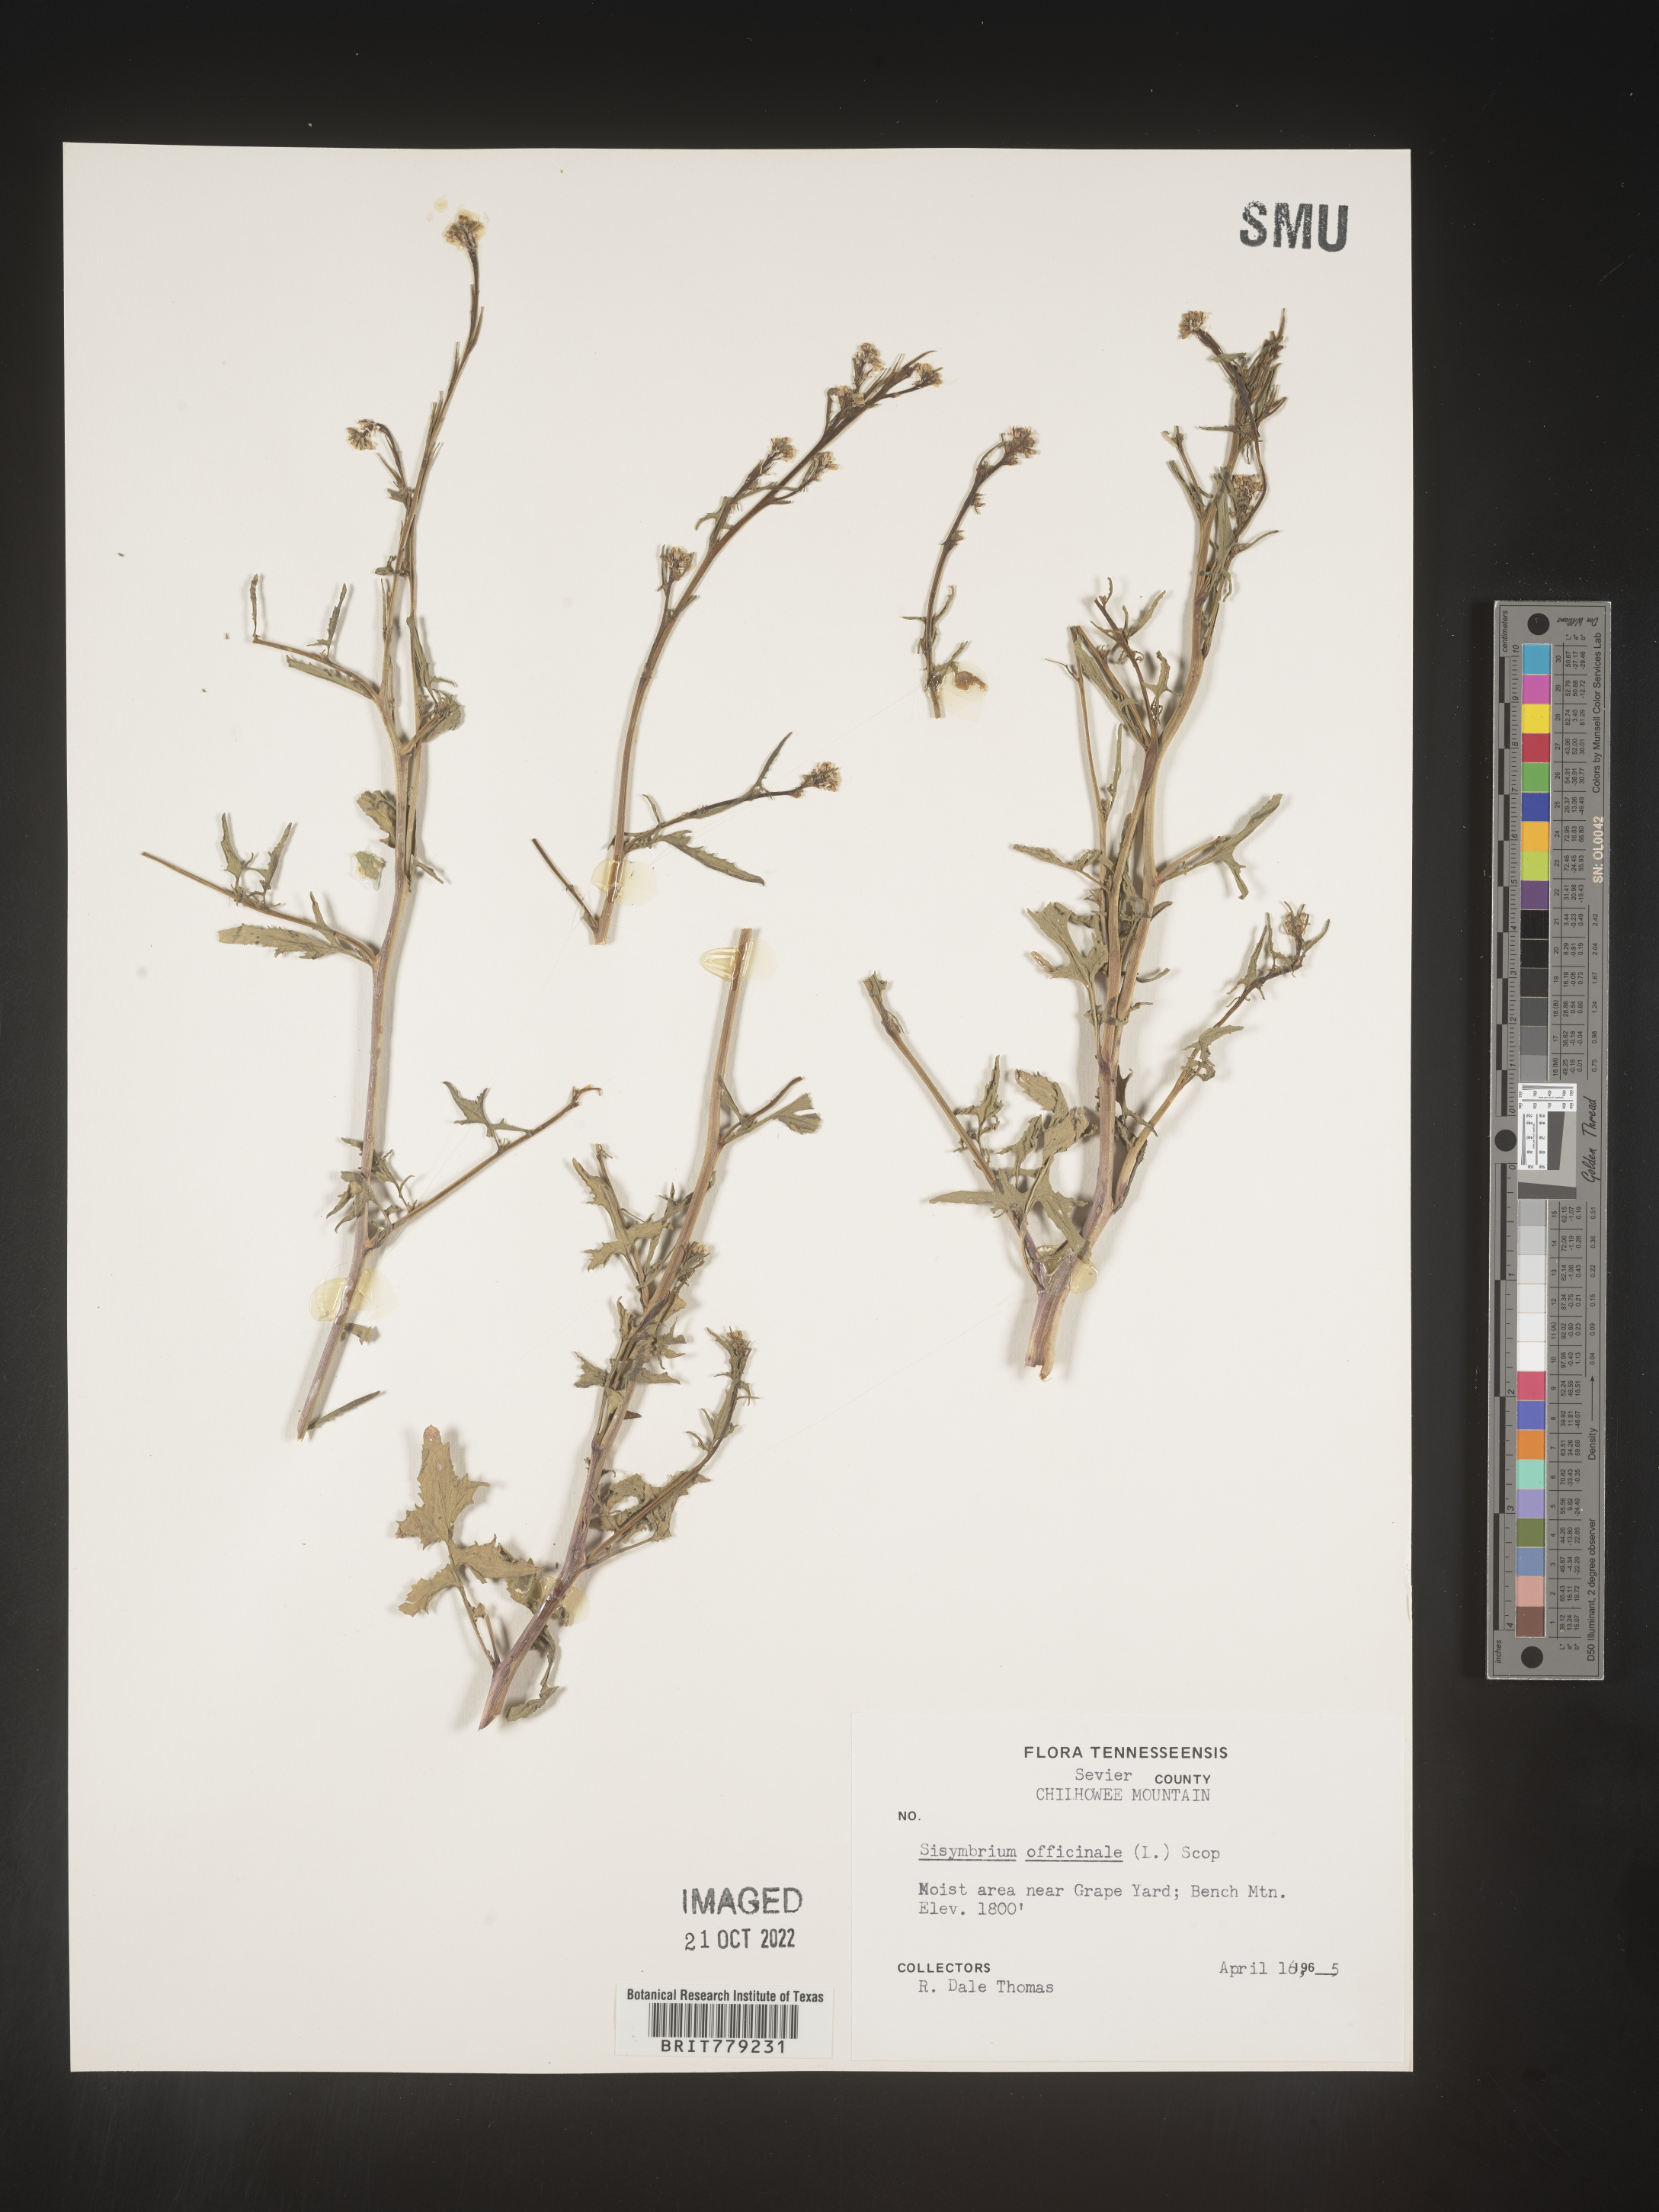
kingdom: Plantae
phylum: Tracheophyta
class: Magnoliopsida
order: Brassicales
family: Brassicaceae
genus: Sisymbrium
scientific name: Sisymbrium officinale
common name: Hedge mustard
